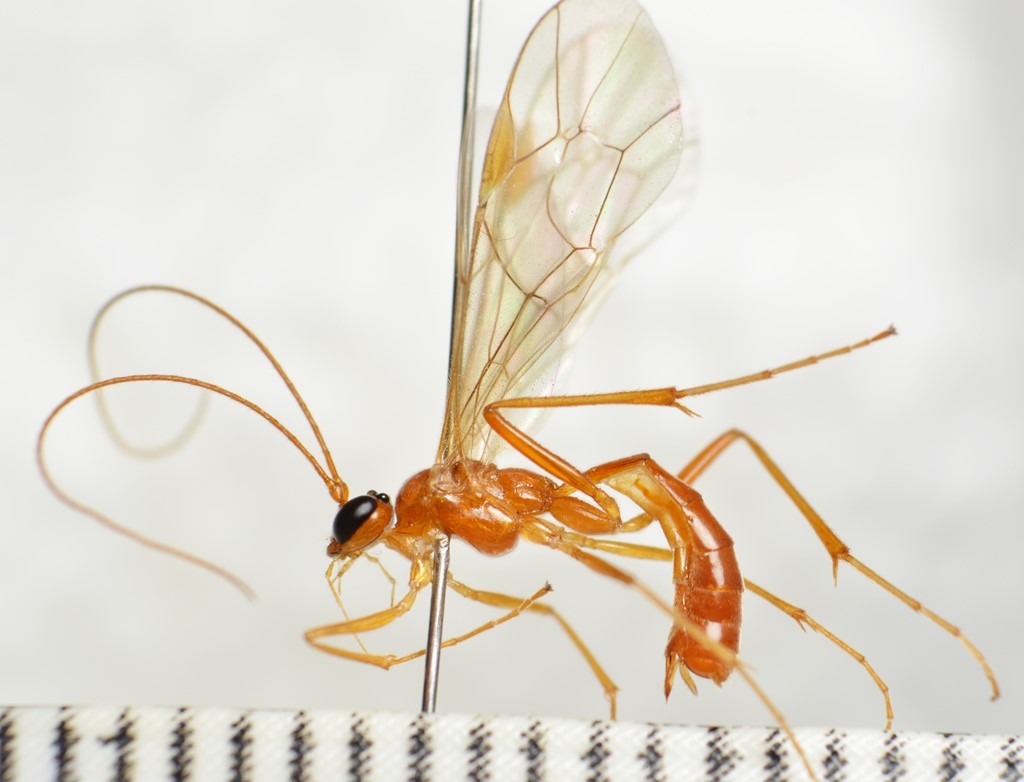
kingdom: Animalia
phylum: Arthropoda
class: Insecta
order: Hymenoptera
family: Ichneumonidae
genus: Absyrtus
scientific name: Absyrtus vicinator
